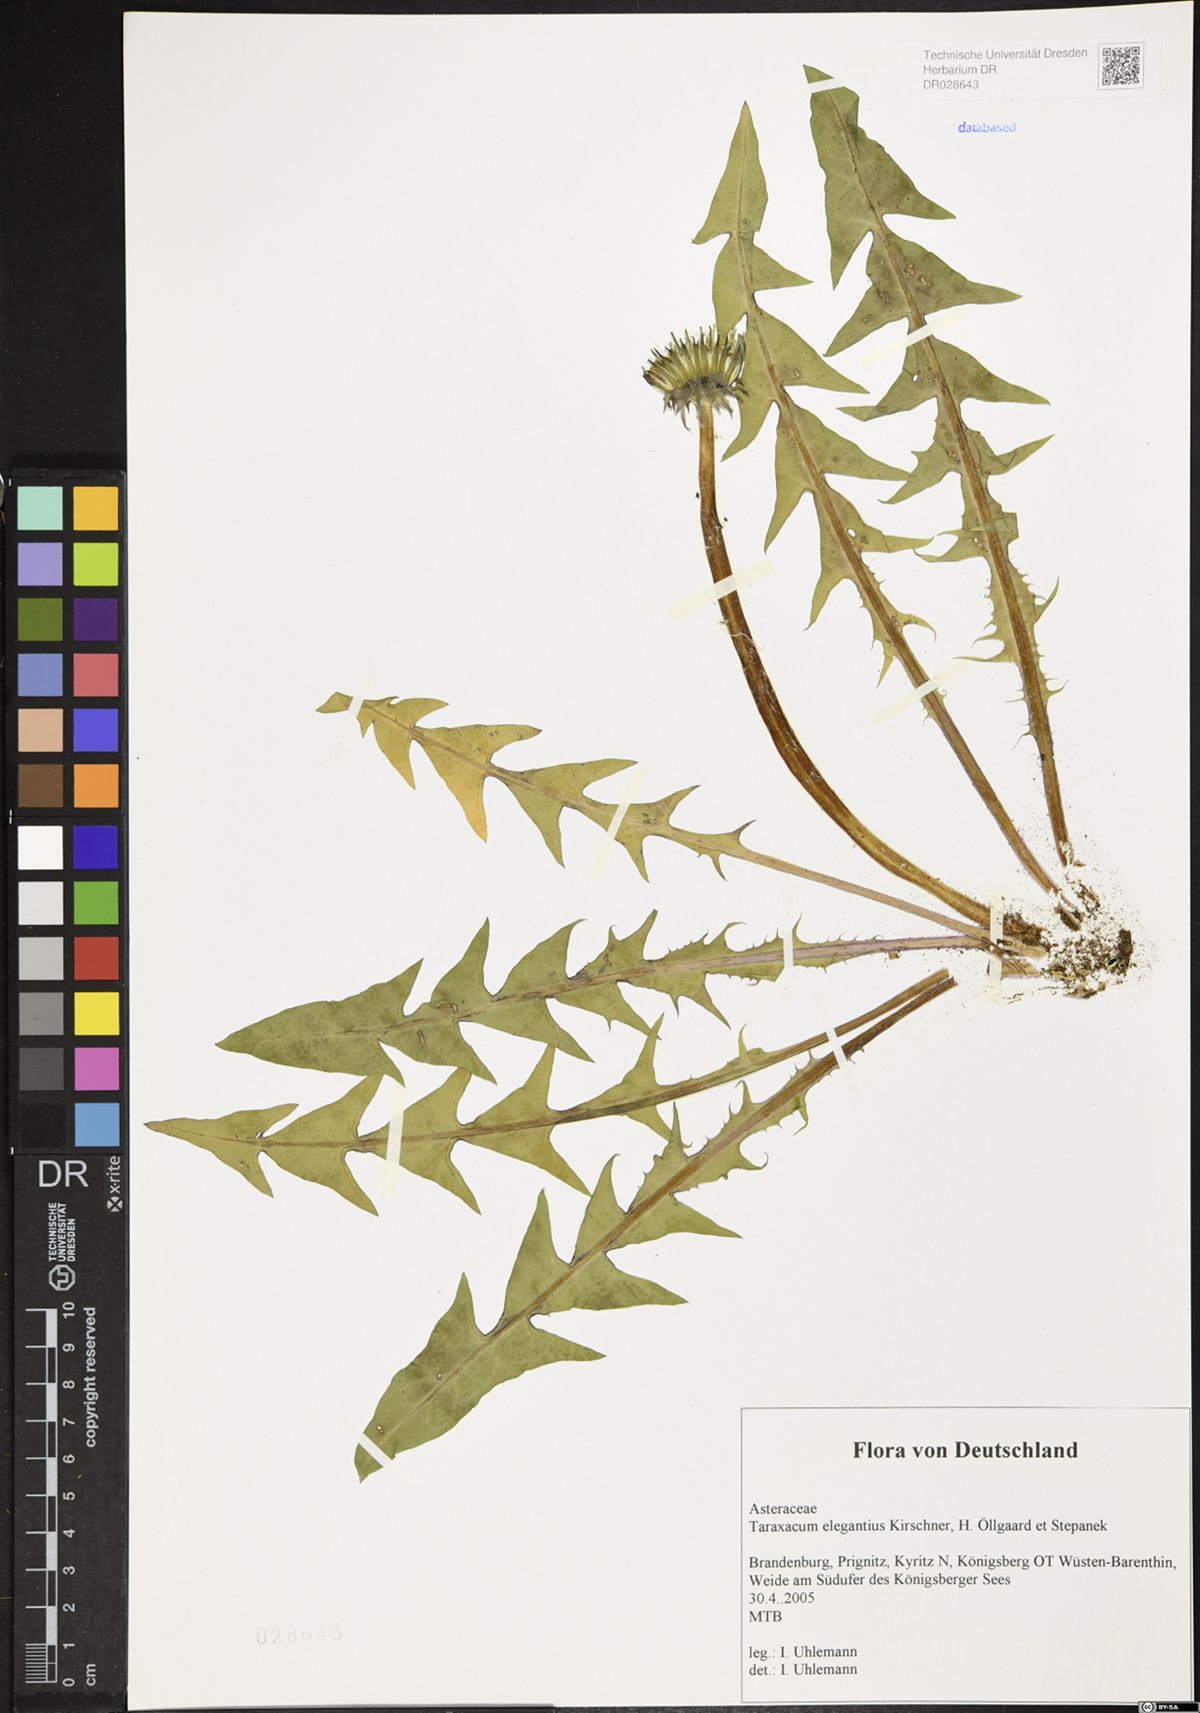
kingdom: Plantae
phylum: Tracheophyta
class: Magnoliopsida
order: Asterales
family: Asteraceae
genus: Taraxacum
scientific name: Taraxacum elegantius
